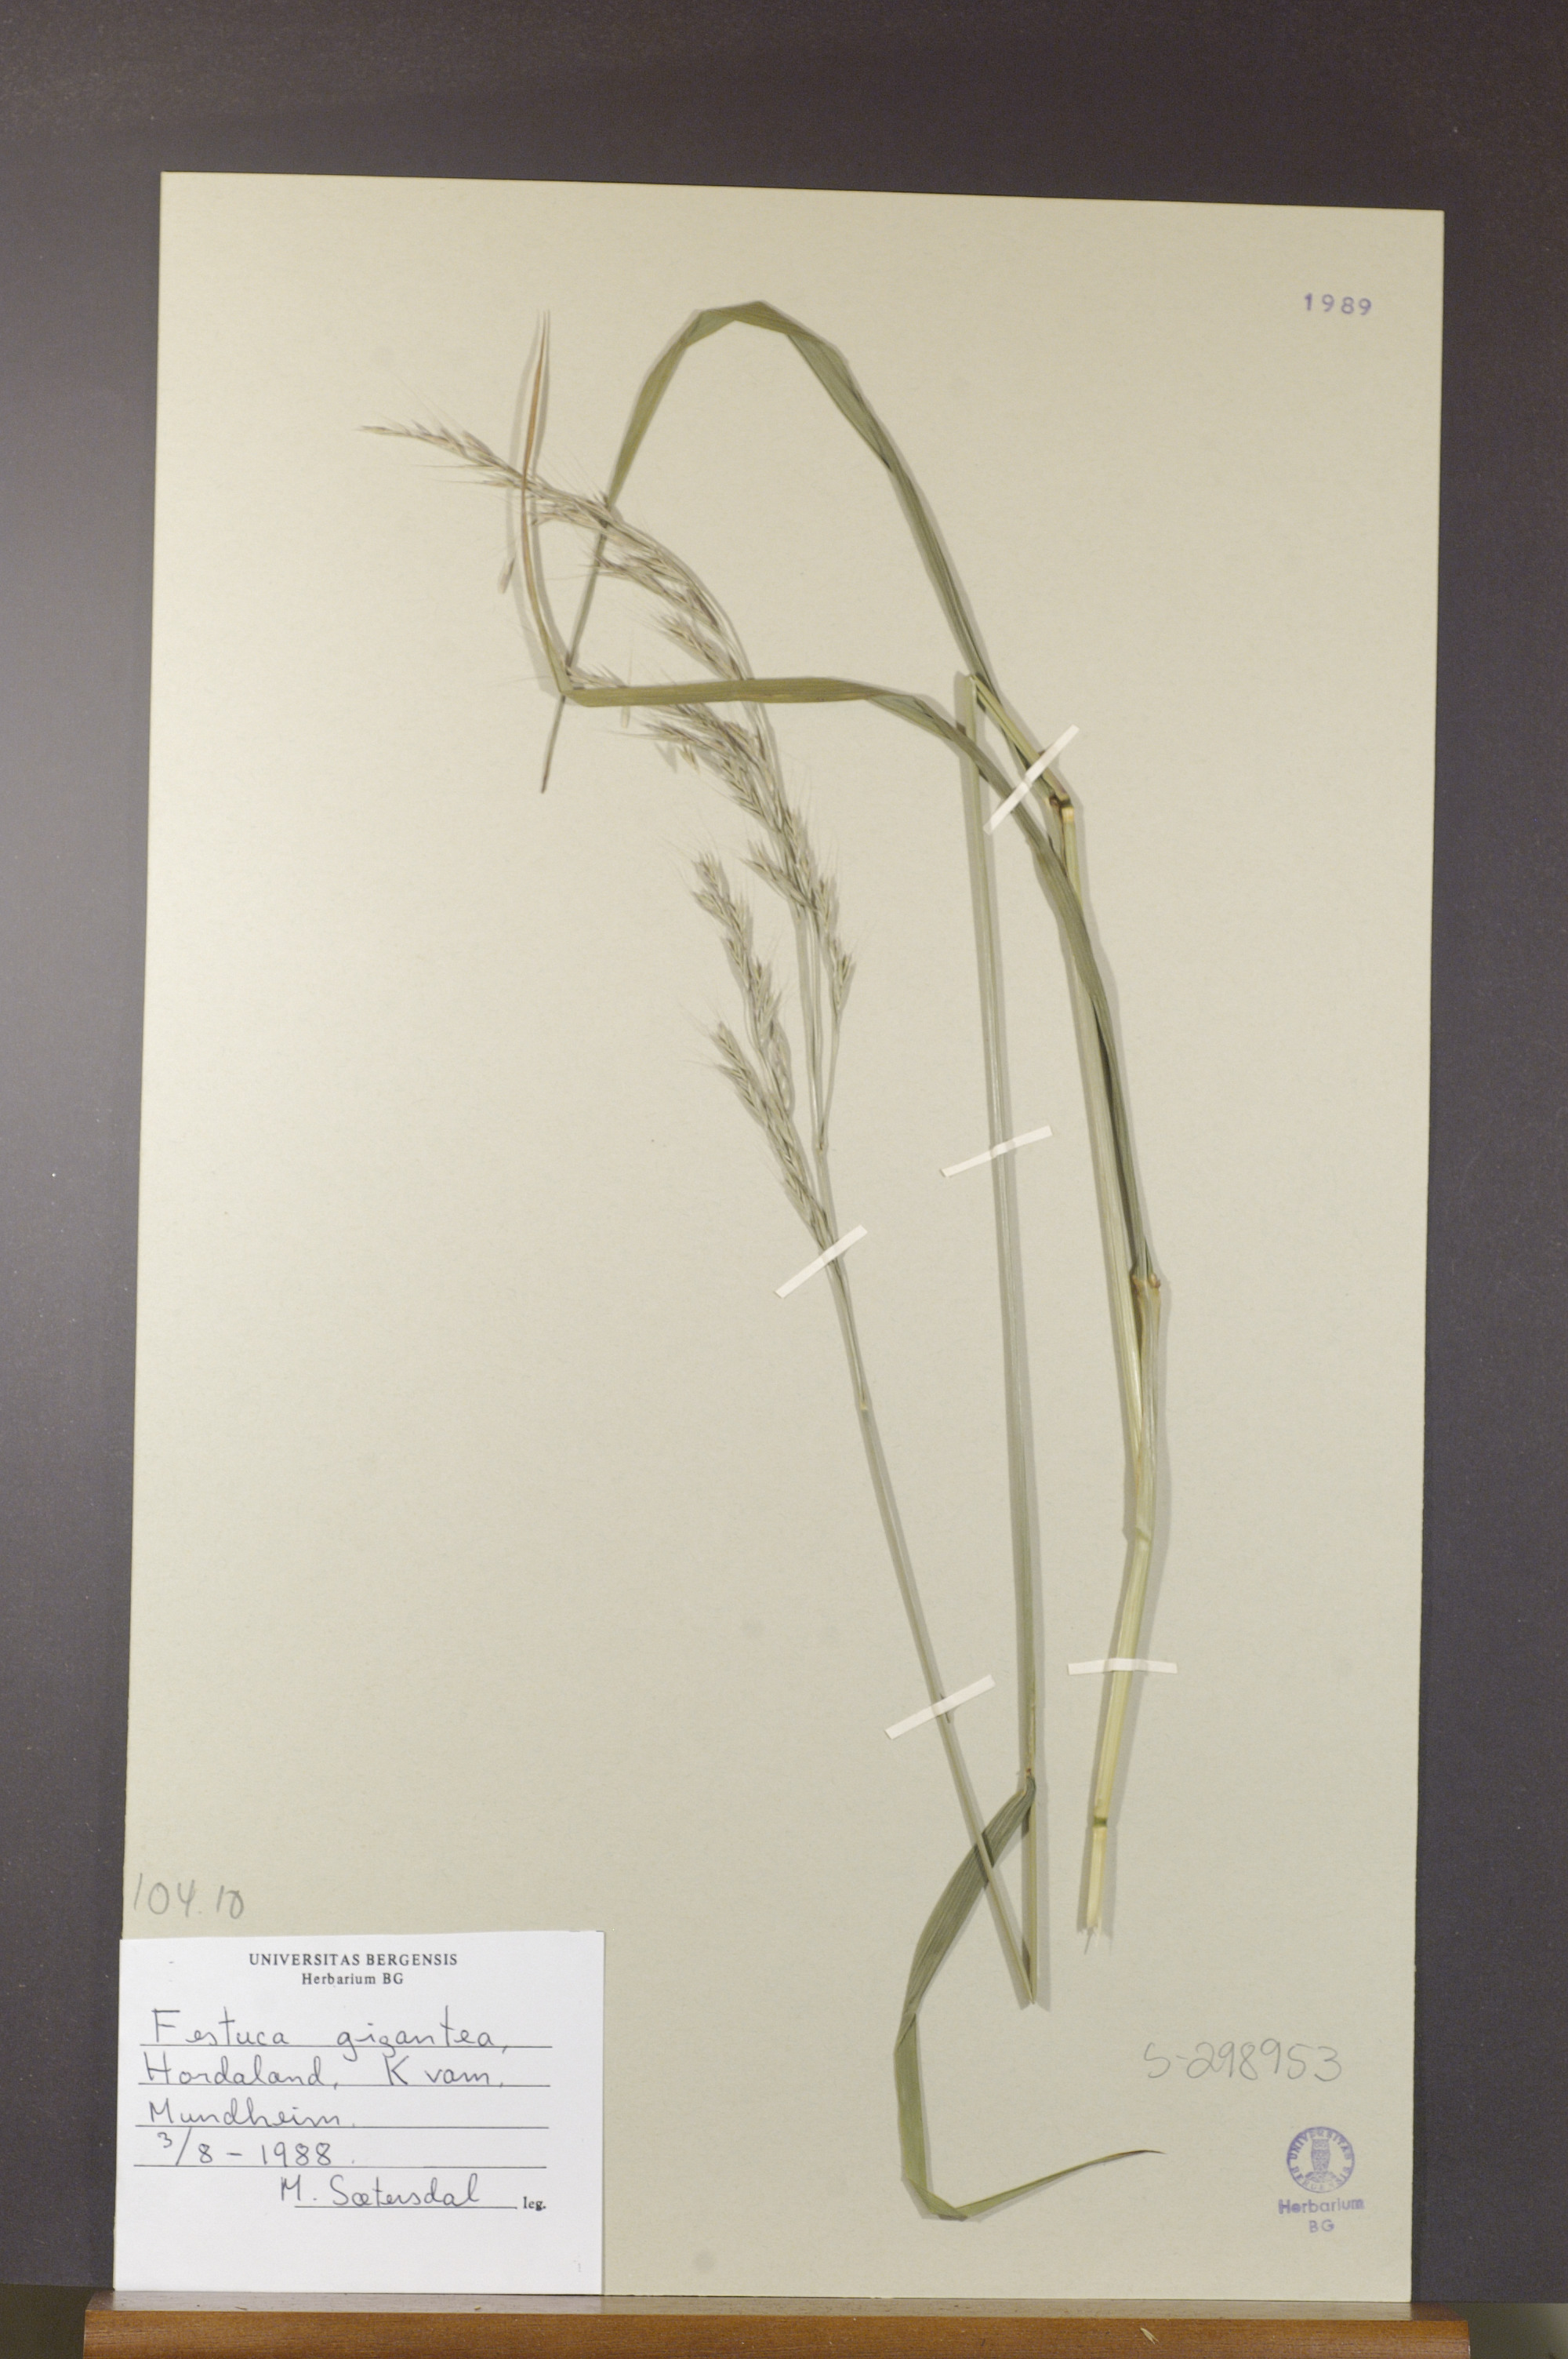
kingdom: Plantae
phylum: Tracheophyta
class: Liliopsida
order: Poales
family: Poaceae
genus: Lolium
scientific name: Lolium giganteum
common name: Giant fescue
